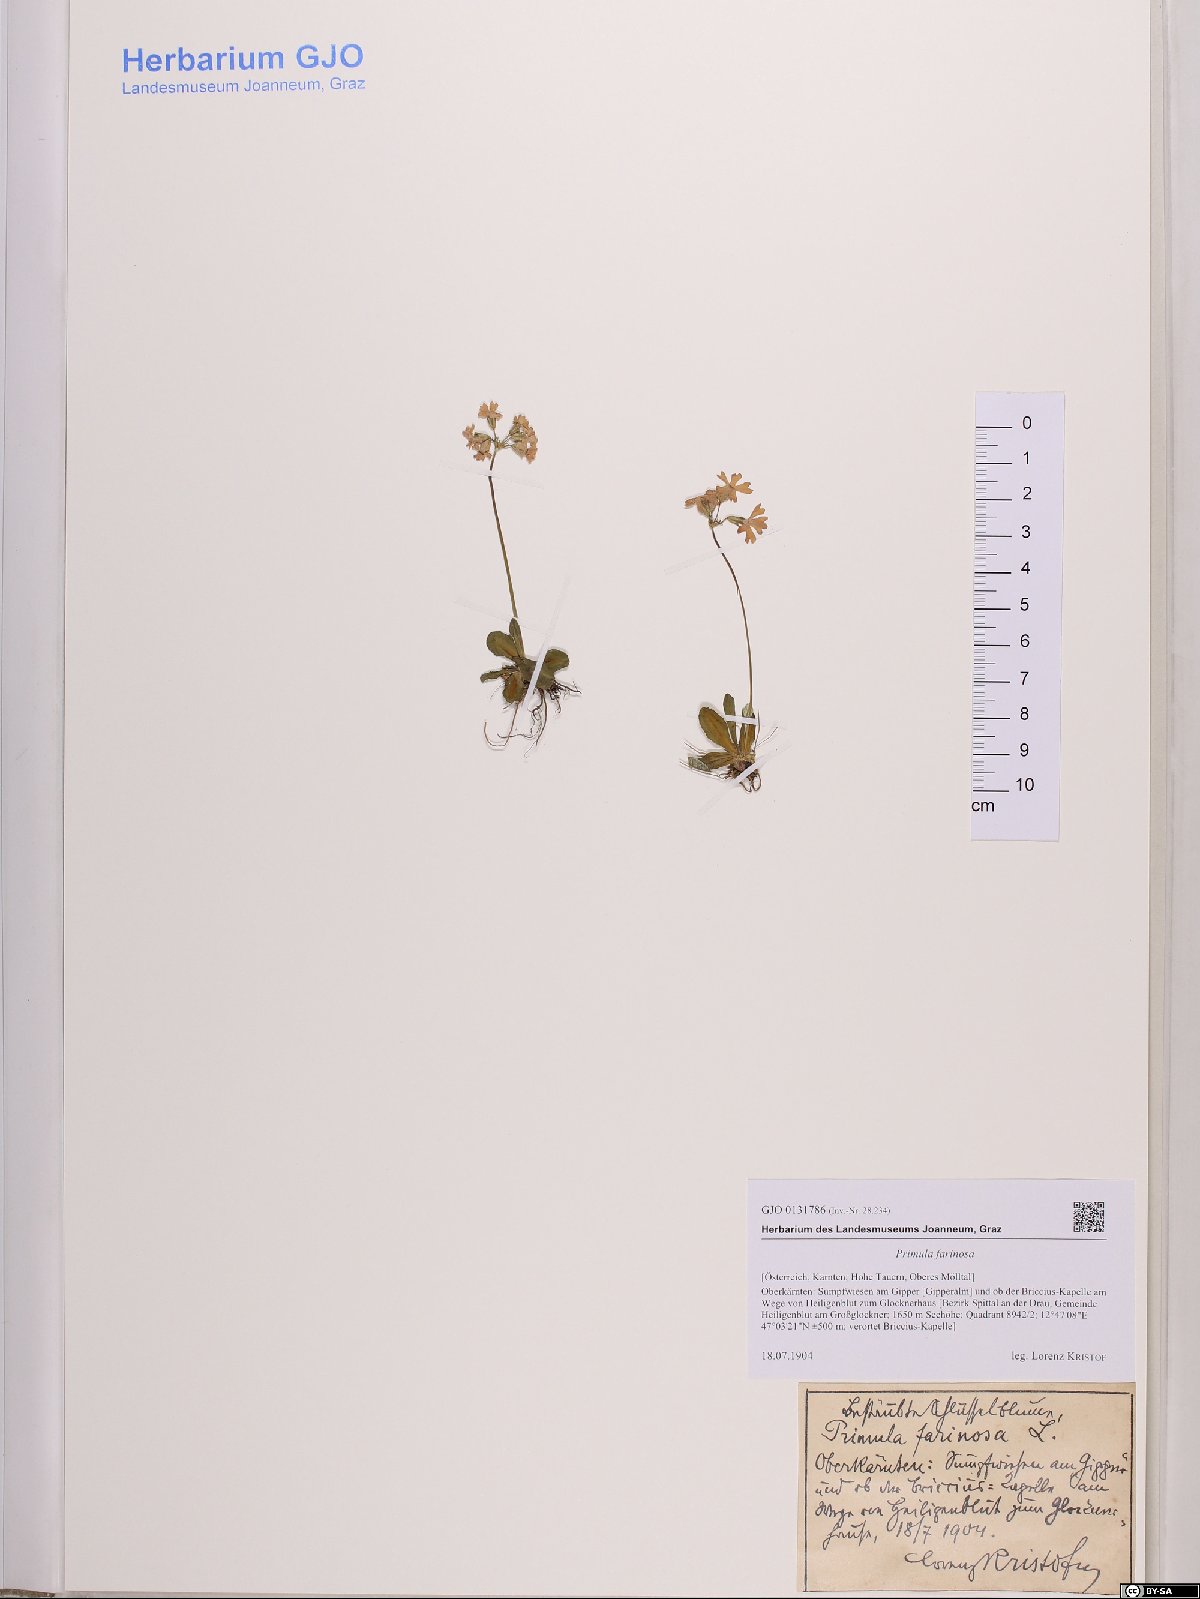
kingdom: Plantae
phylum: Tracheophyta
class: Magnoliopsida
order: Ericales
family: Primulaceae
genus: Primula
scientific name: Primula farinosa
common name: Bird's-eye primrose
